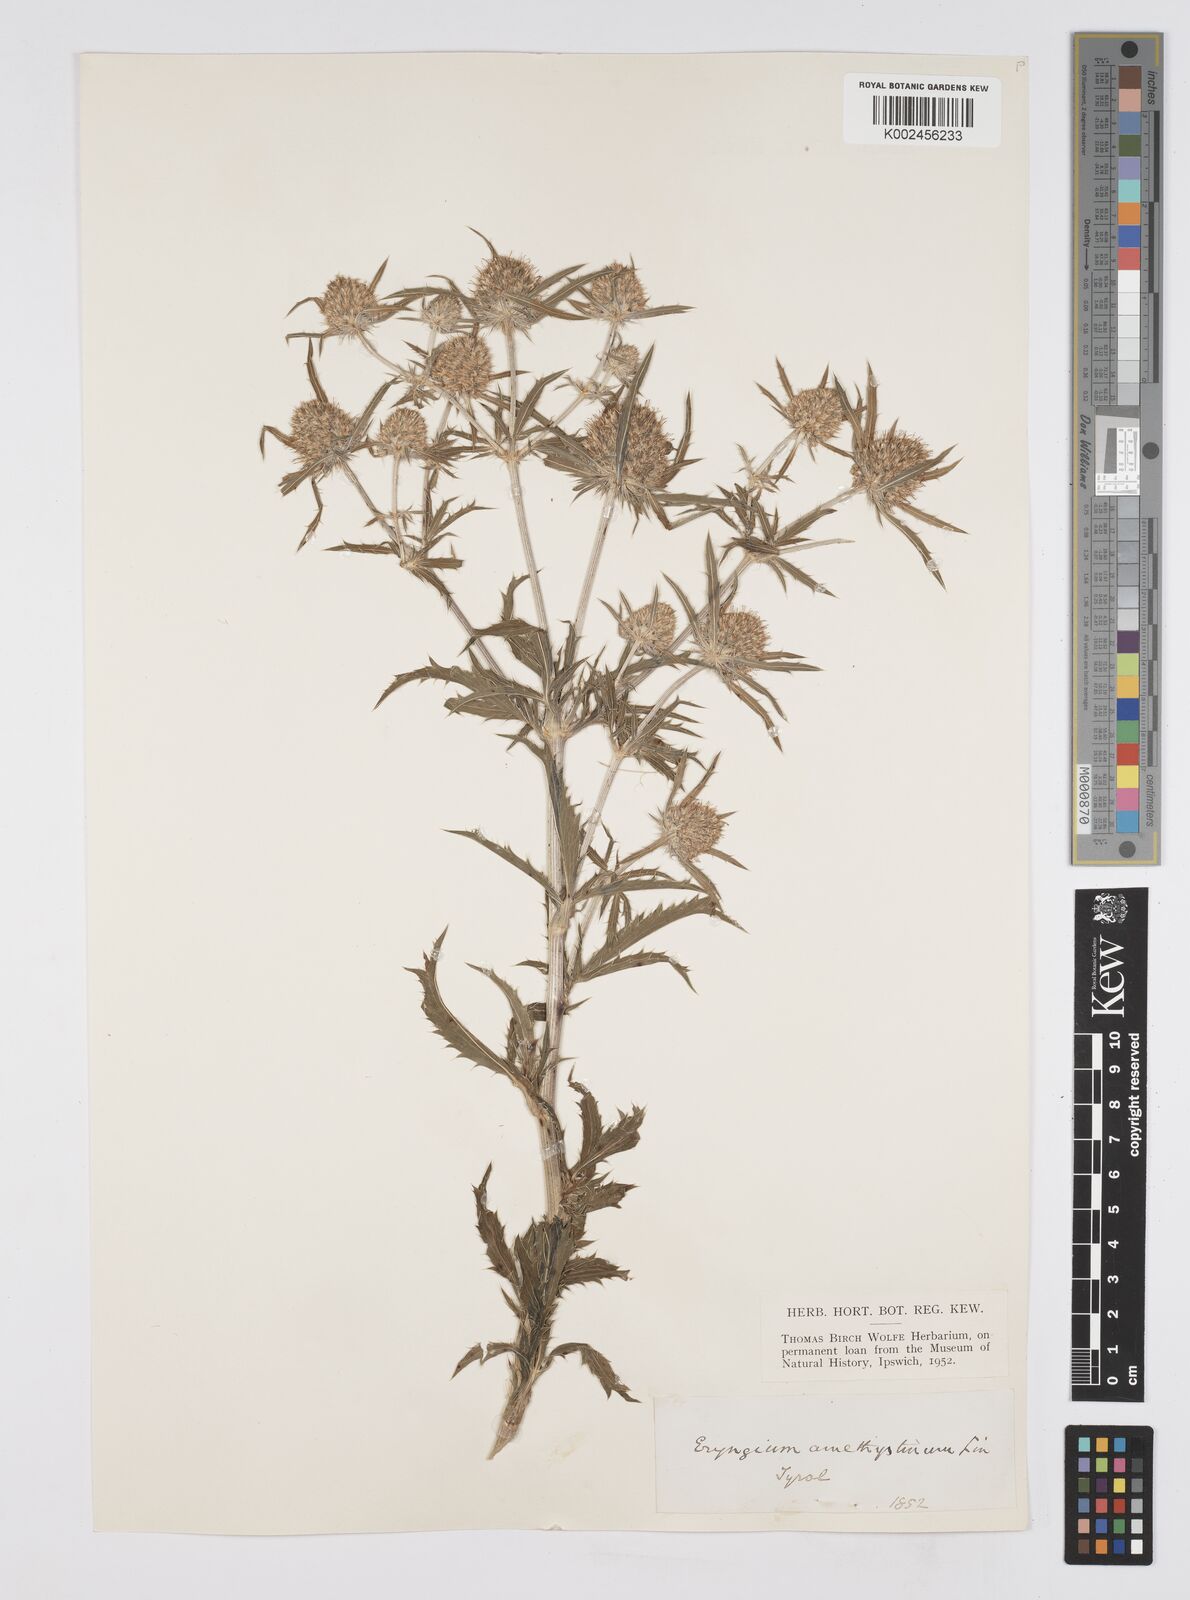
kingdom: Plantae
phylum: Tracheophyta
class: Magnoliopsida
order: Apiales
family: Apiaceae
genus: Eryngium
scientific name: Eryngium amethystinum
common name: Amethyst eryngo
